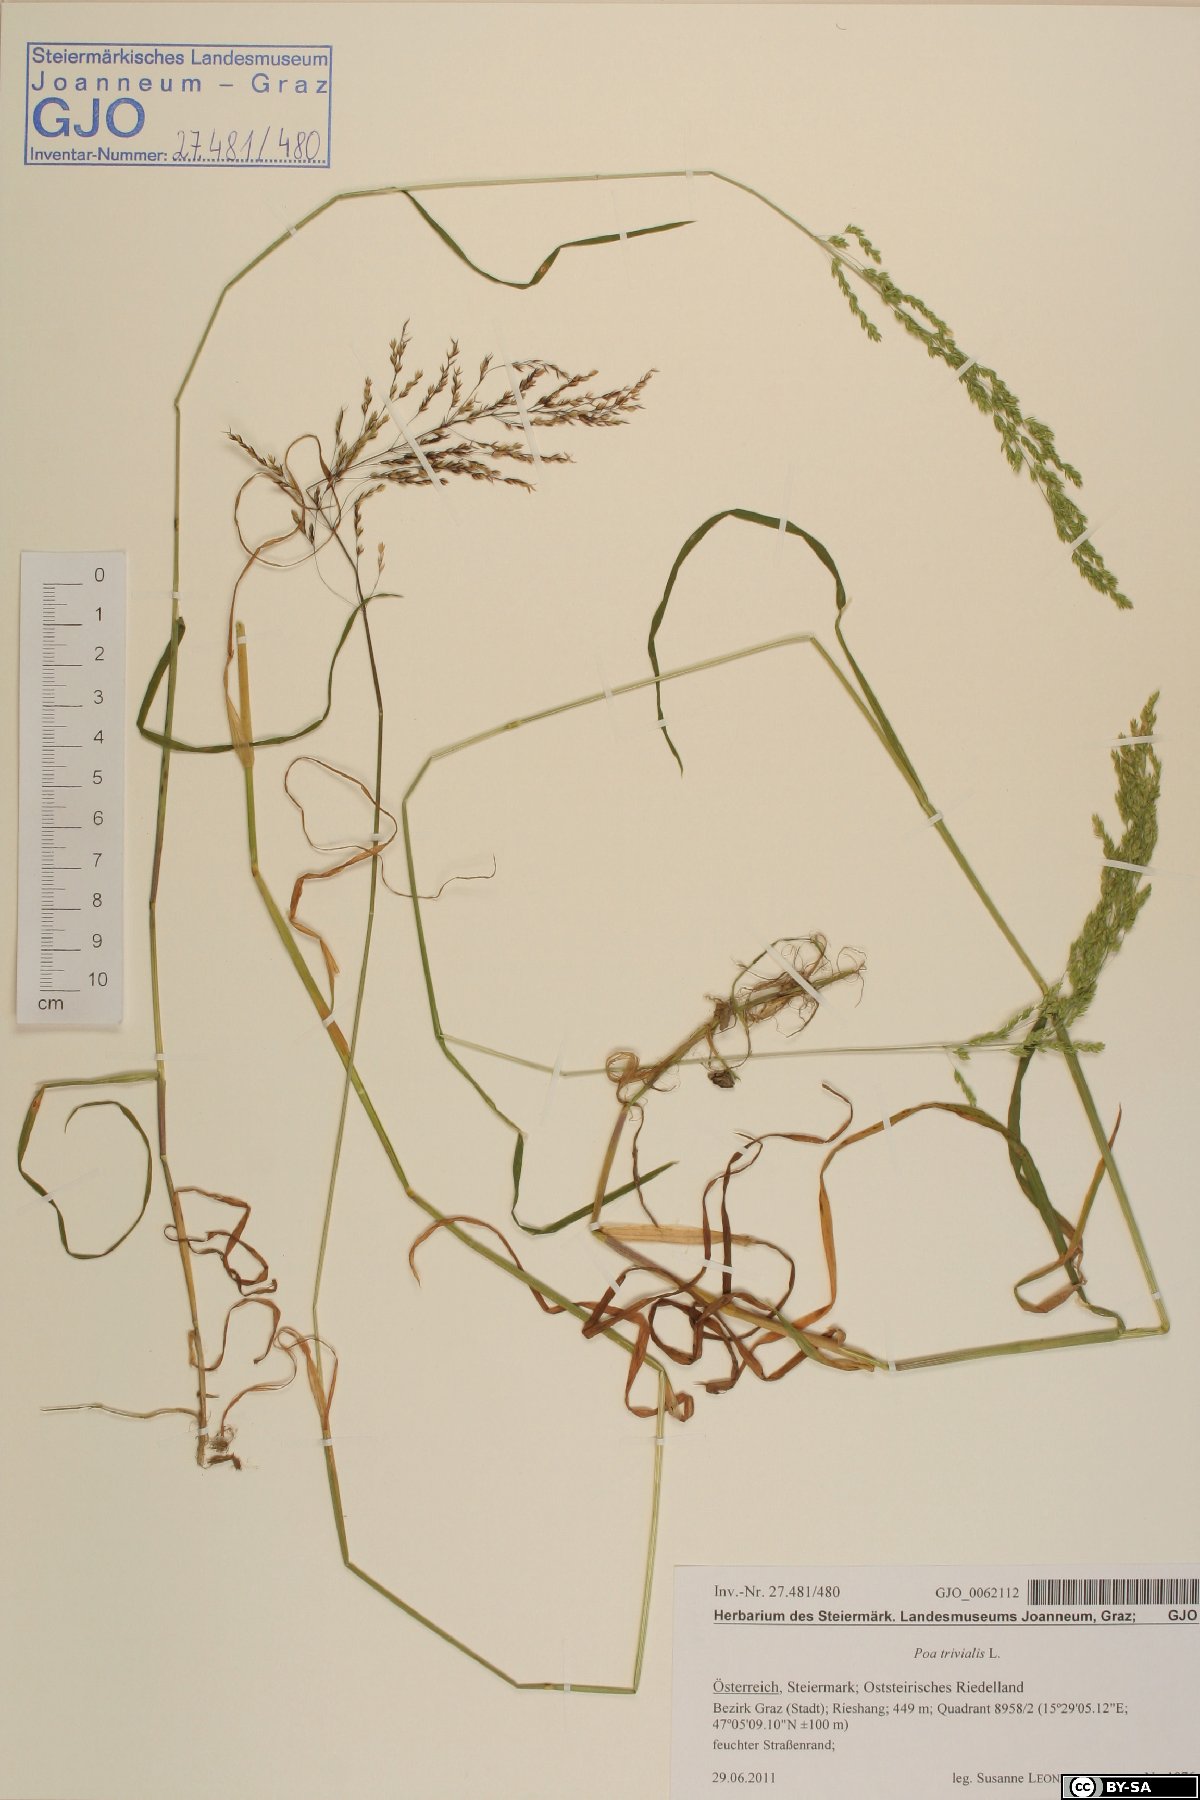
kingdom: Plantae
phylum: Tracheophyta
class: Liliopsida
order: Poales
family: Poaceae
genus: Poa
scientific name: Poa trivialis
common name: Rough bluegrass
